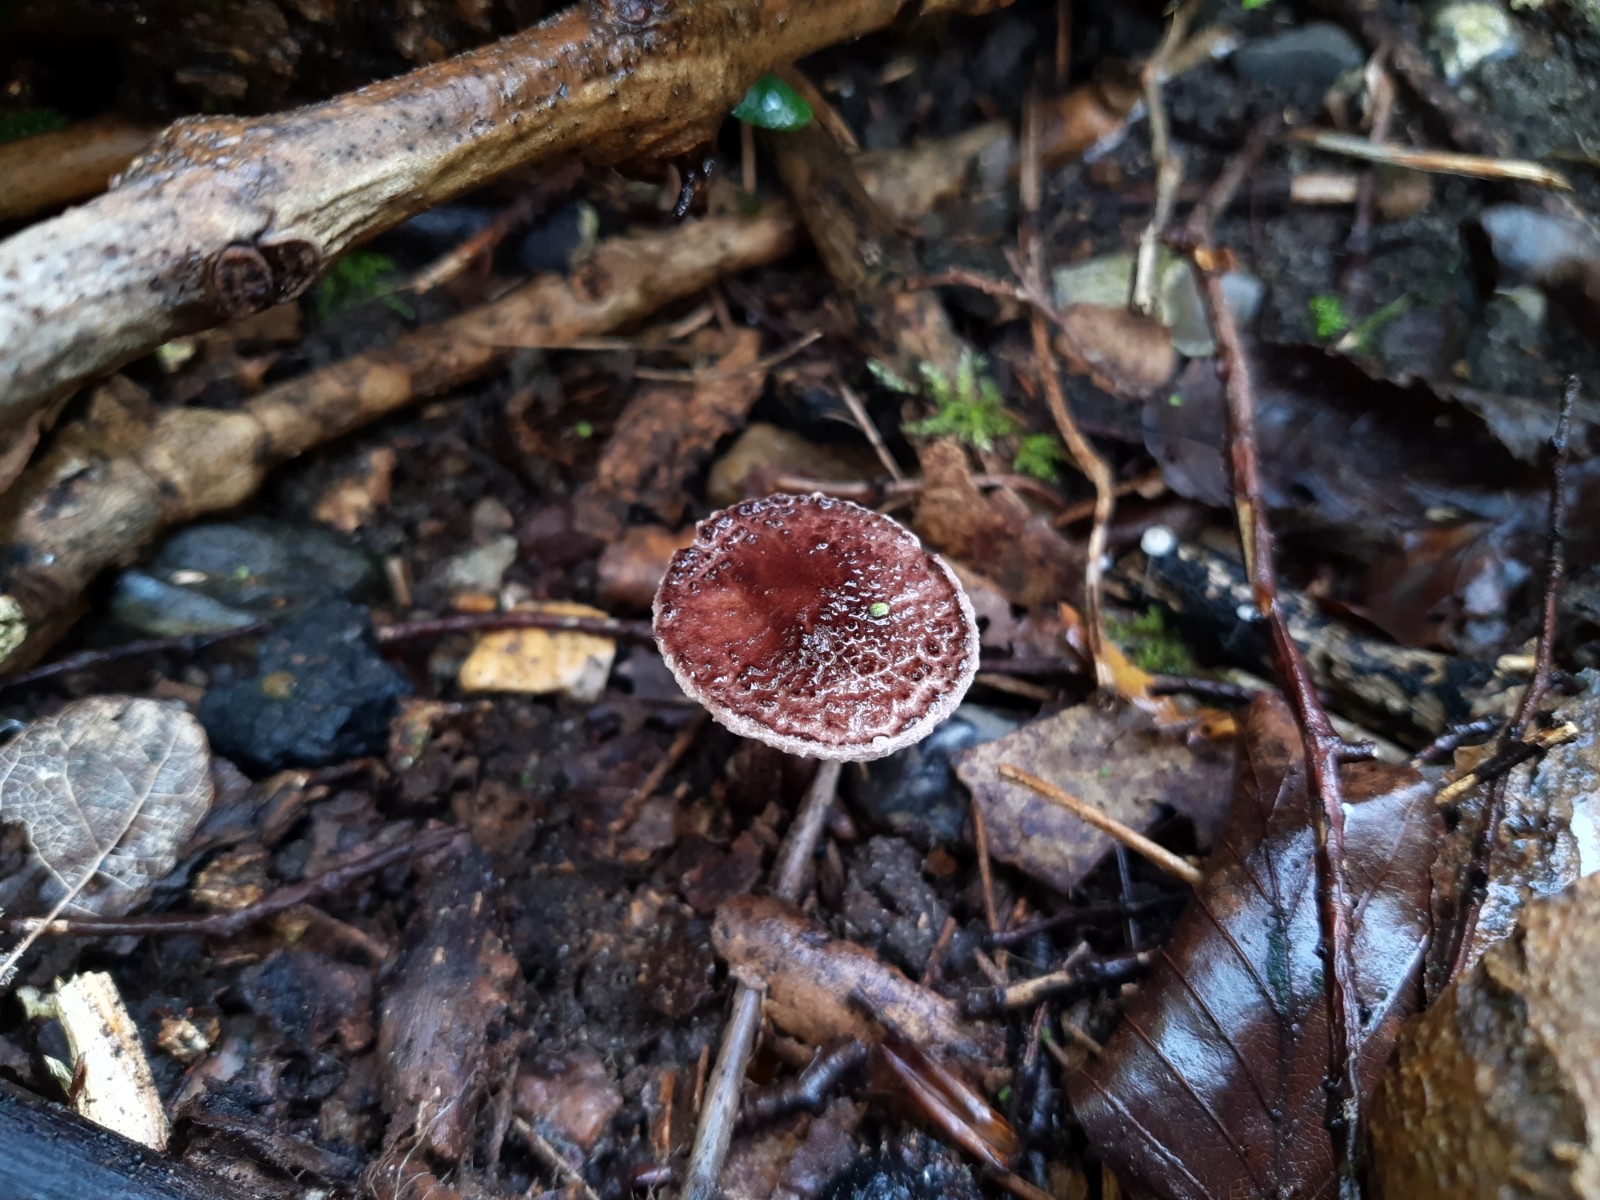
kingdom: Fungi
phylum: Basidiomycota
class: Agaricomycetes
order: Agaricales
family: Agaricaceae
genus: Lepiota
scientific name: Lepiota fuscovinacea
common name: vinrød parasolhat
